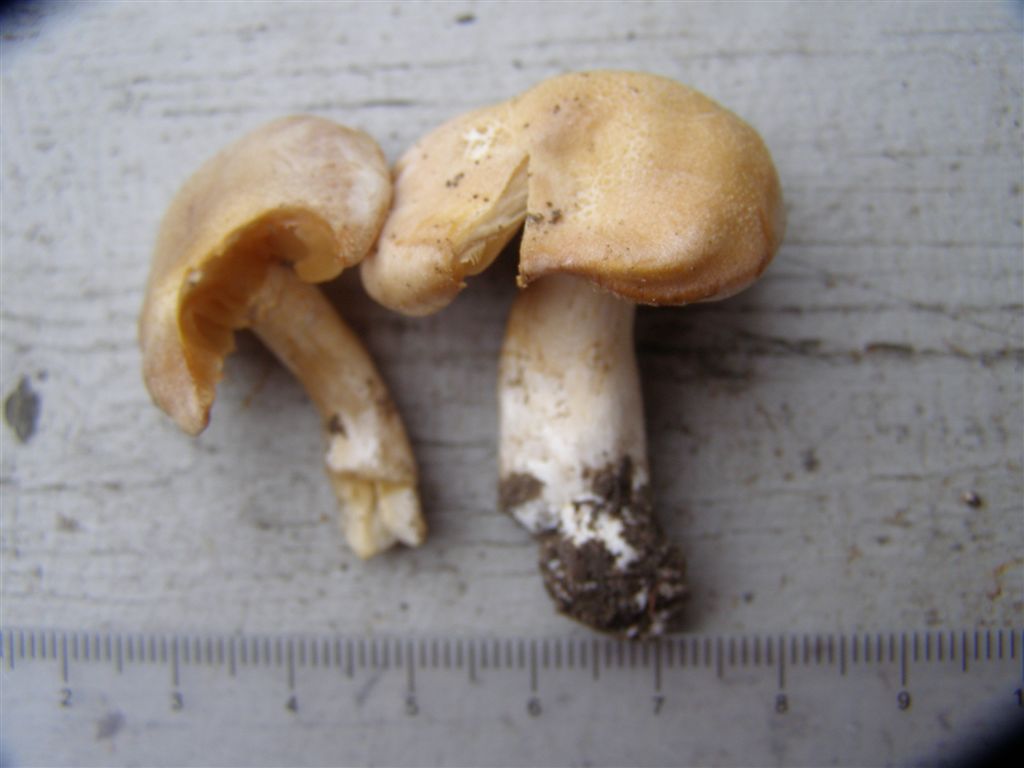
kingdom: Fungi
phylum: Basidiomycota
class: Agaricomycetes
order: Agaricales
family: Cortinariaceae
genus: Thaxterogaster
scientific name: Thaxterogaster leucoluteolus
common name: isabella slørhat
